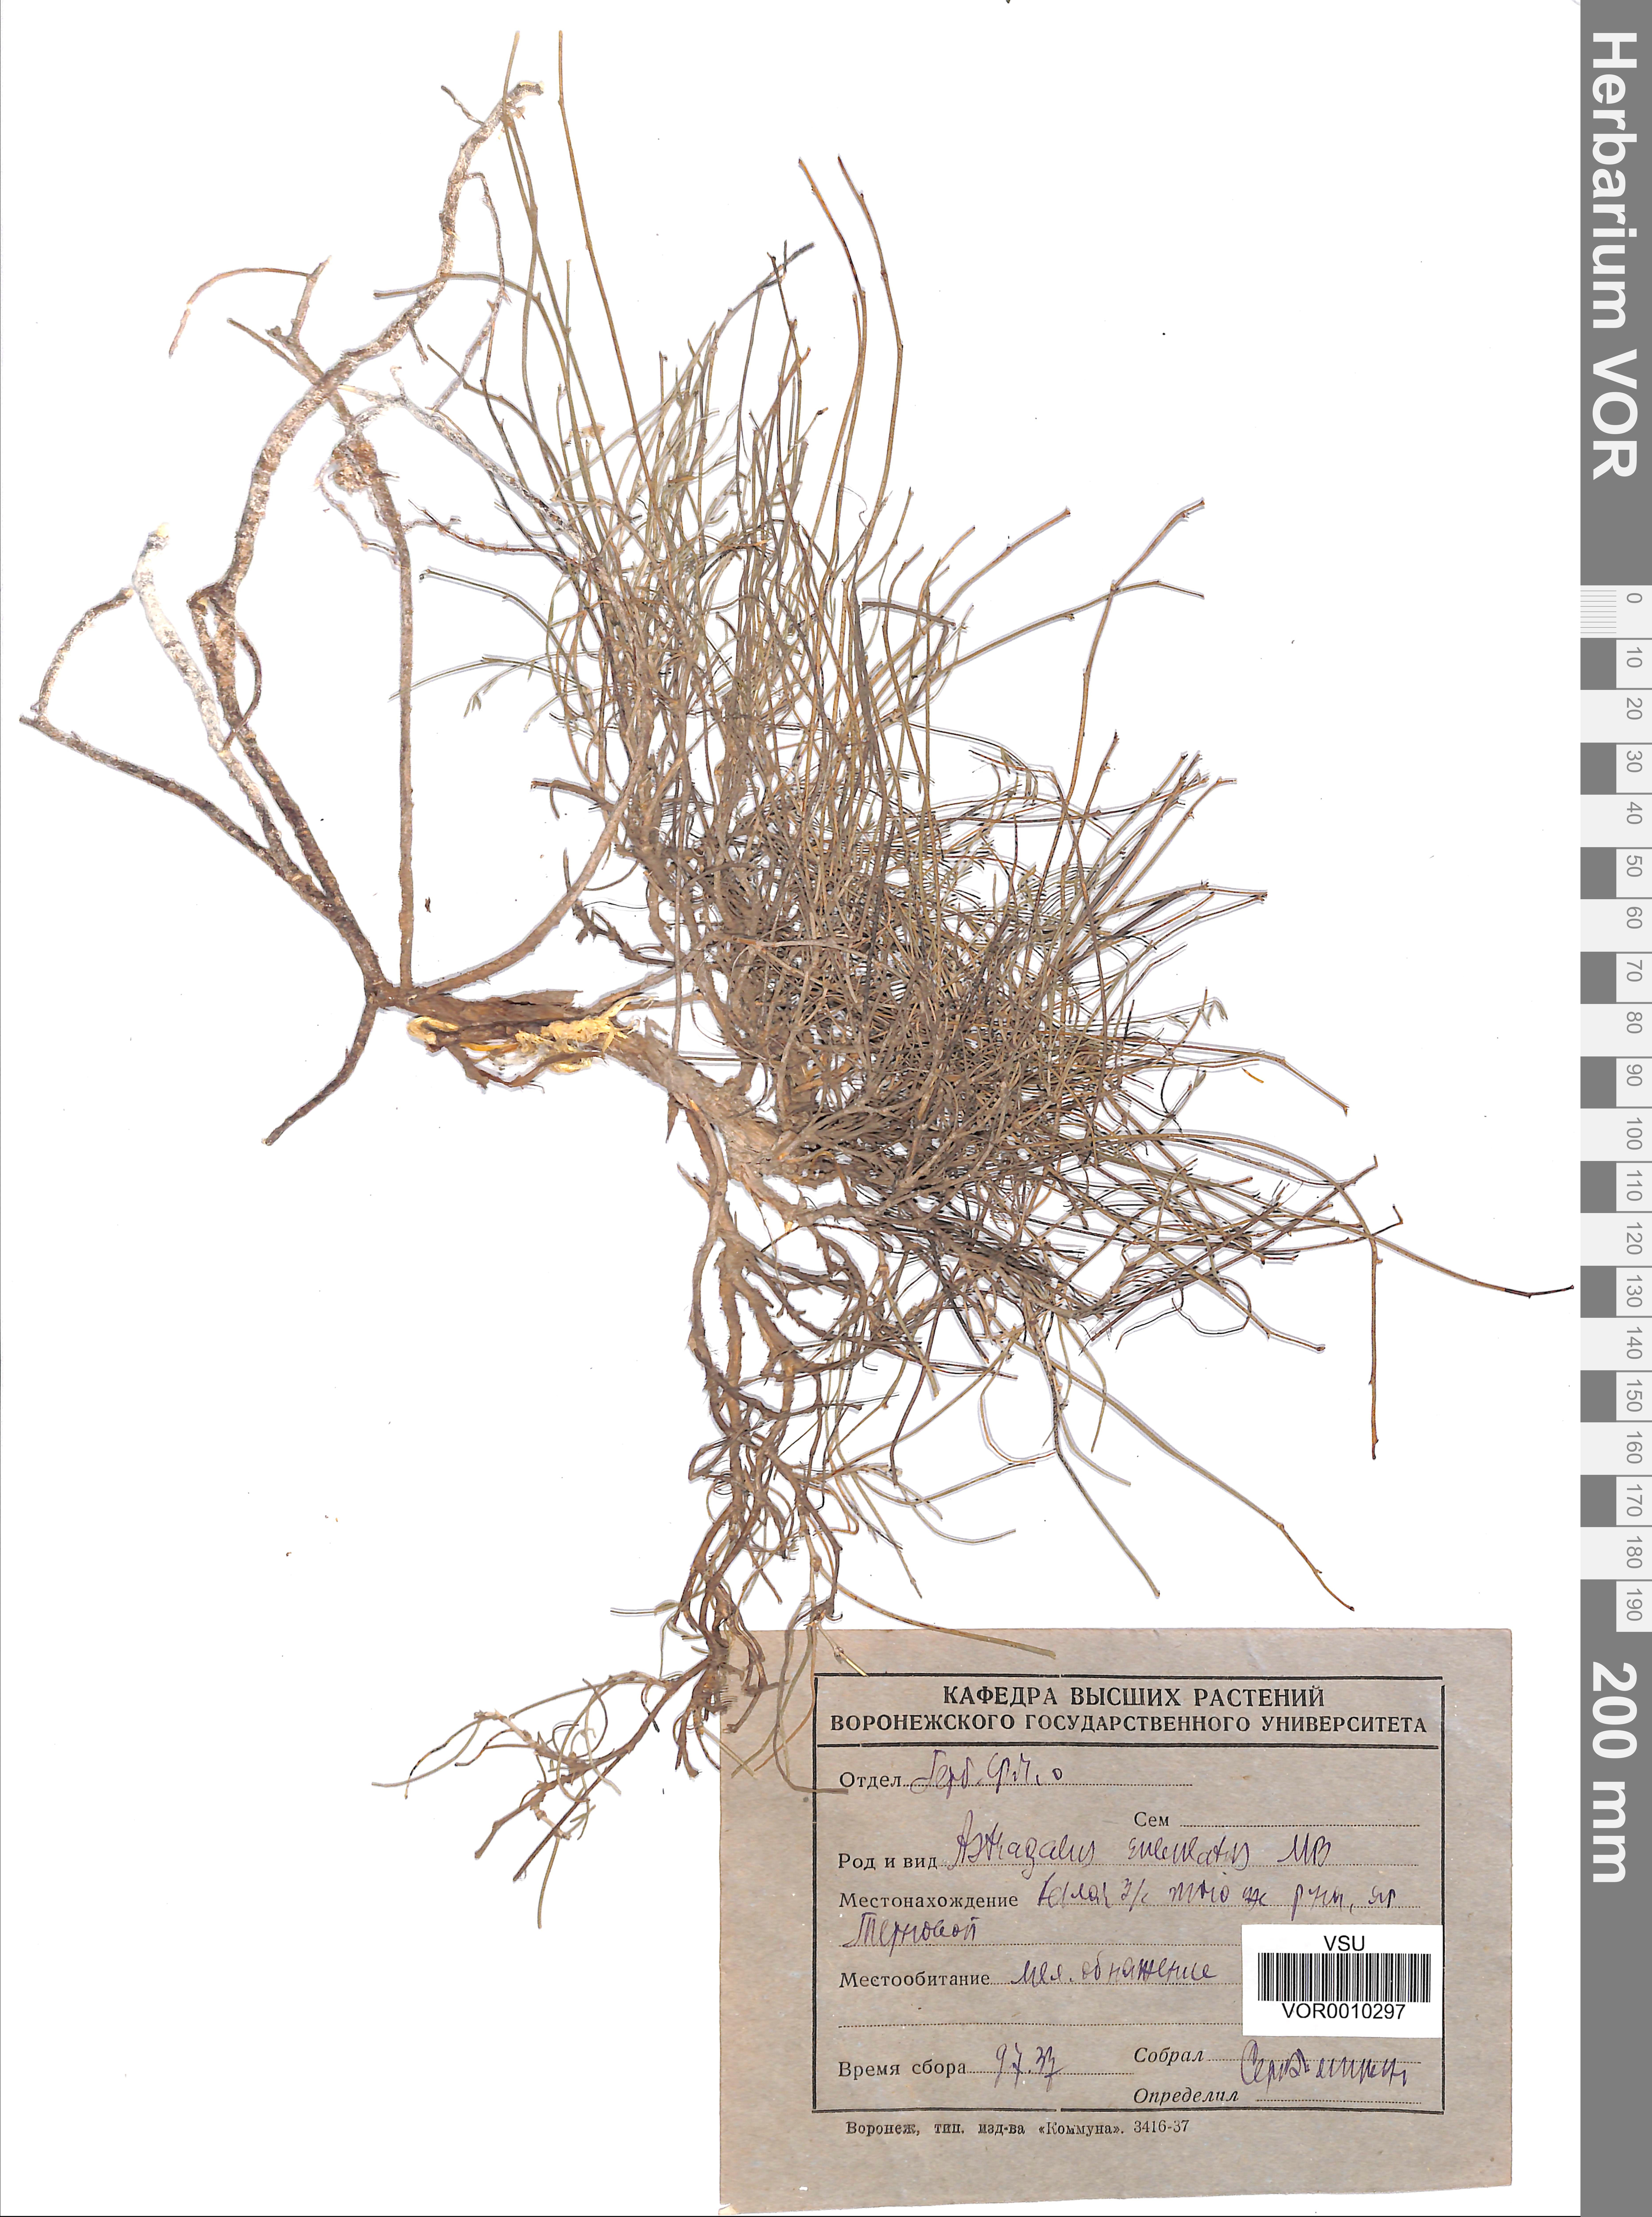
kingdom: Plantae
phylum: Tracheophyta
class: Magnoliopsida
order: Fabales
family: Fabaceae
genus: Astragalus
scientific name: Astragalus ucrainicus
